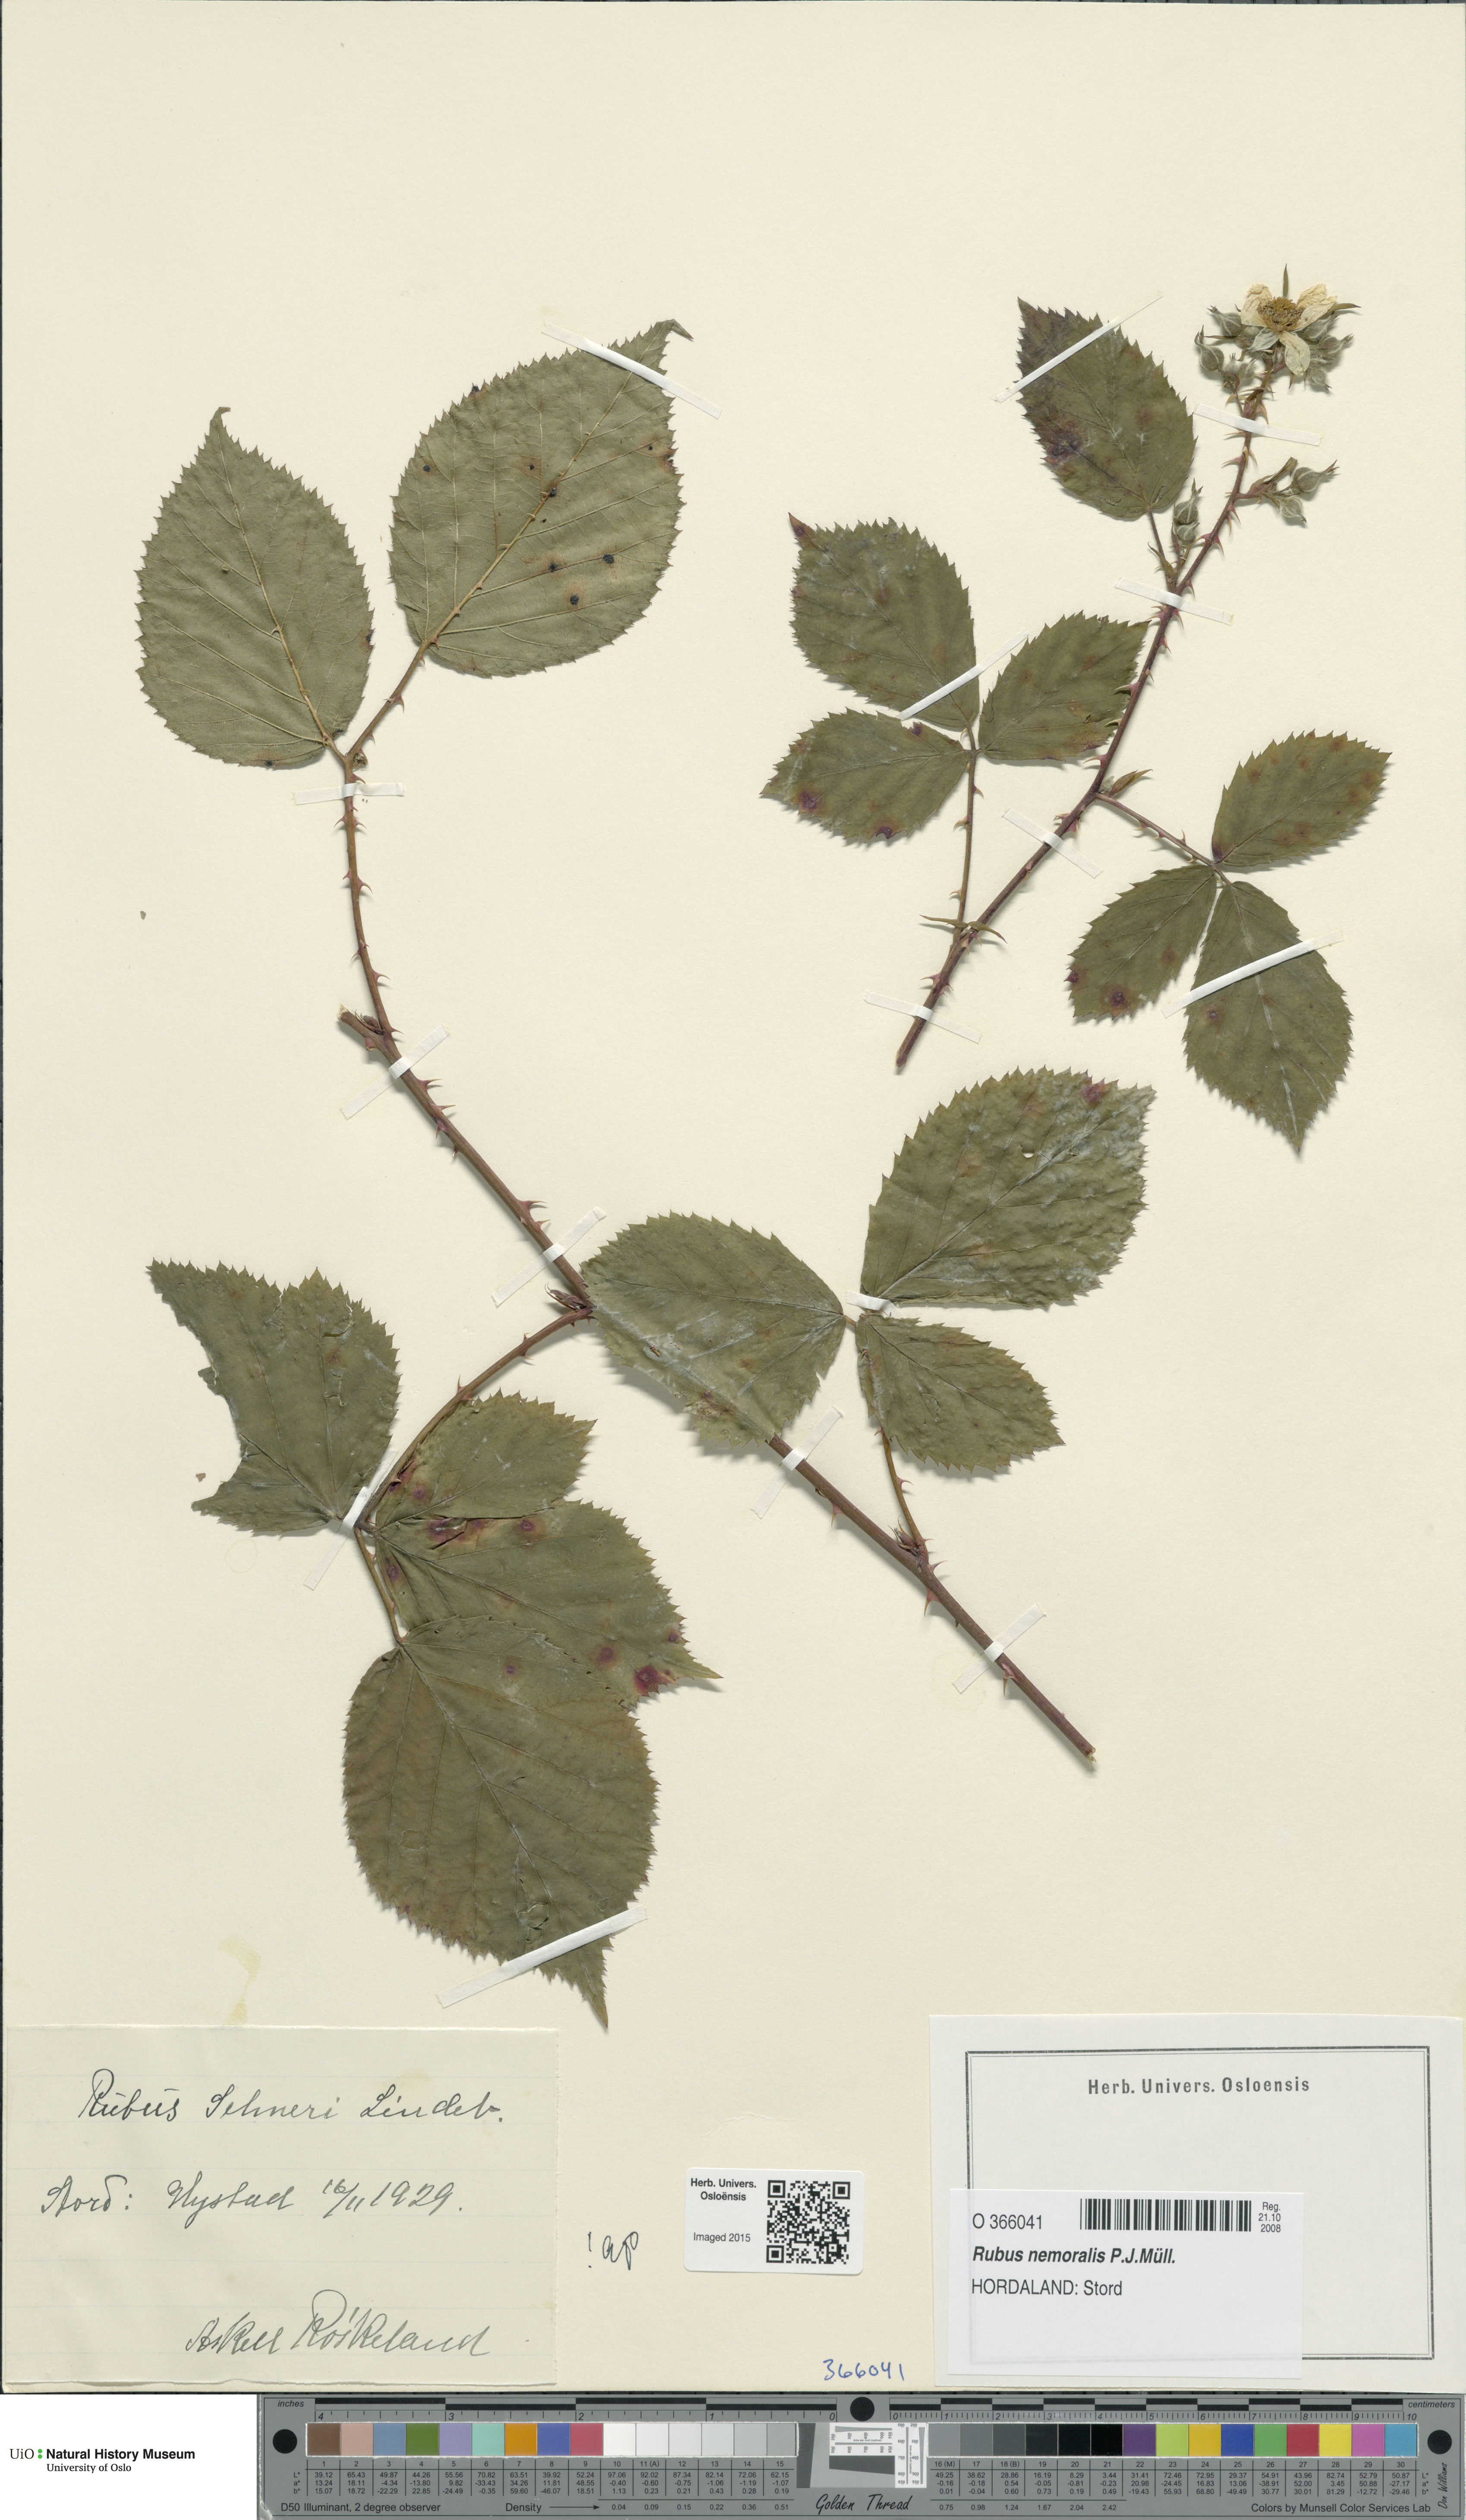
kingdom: Plantae
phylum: Tracheophyta
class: Magnoliopsida
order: Rosales
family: Rosaceae
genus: Rubus
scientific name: Rubus nemoralis
